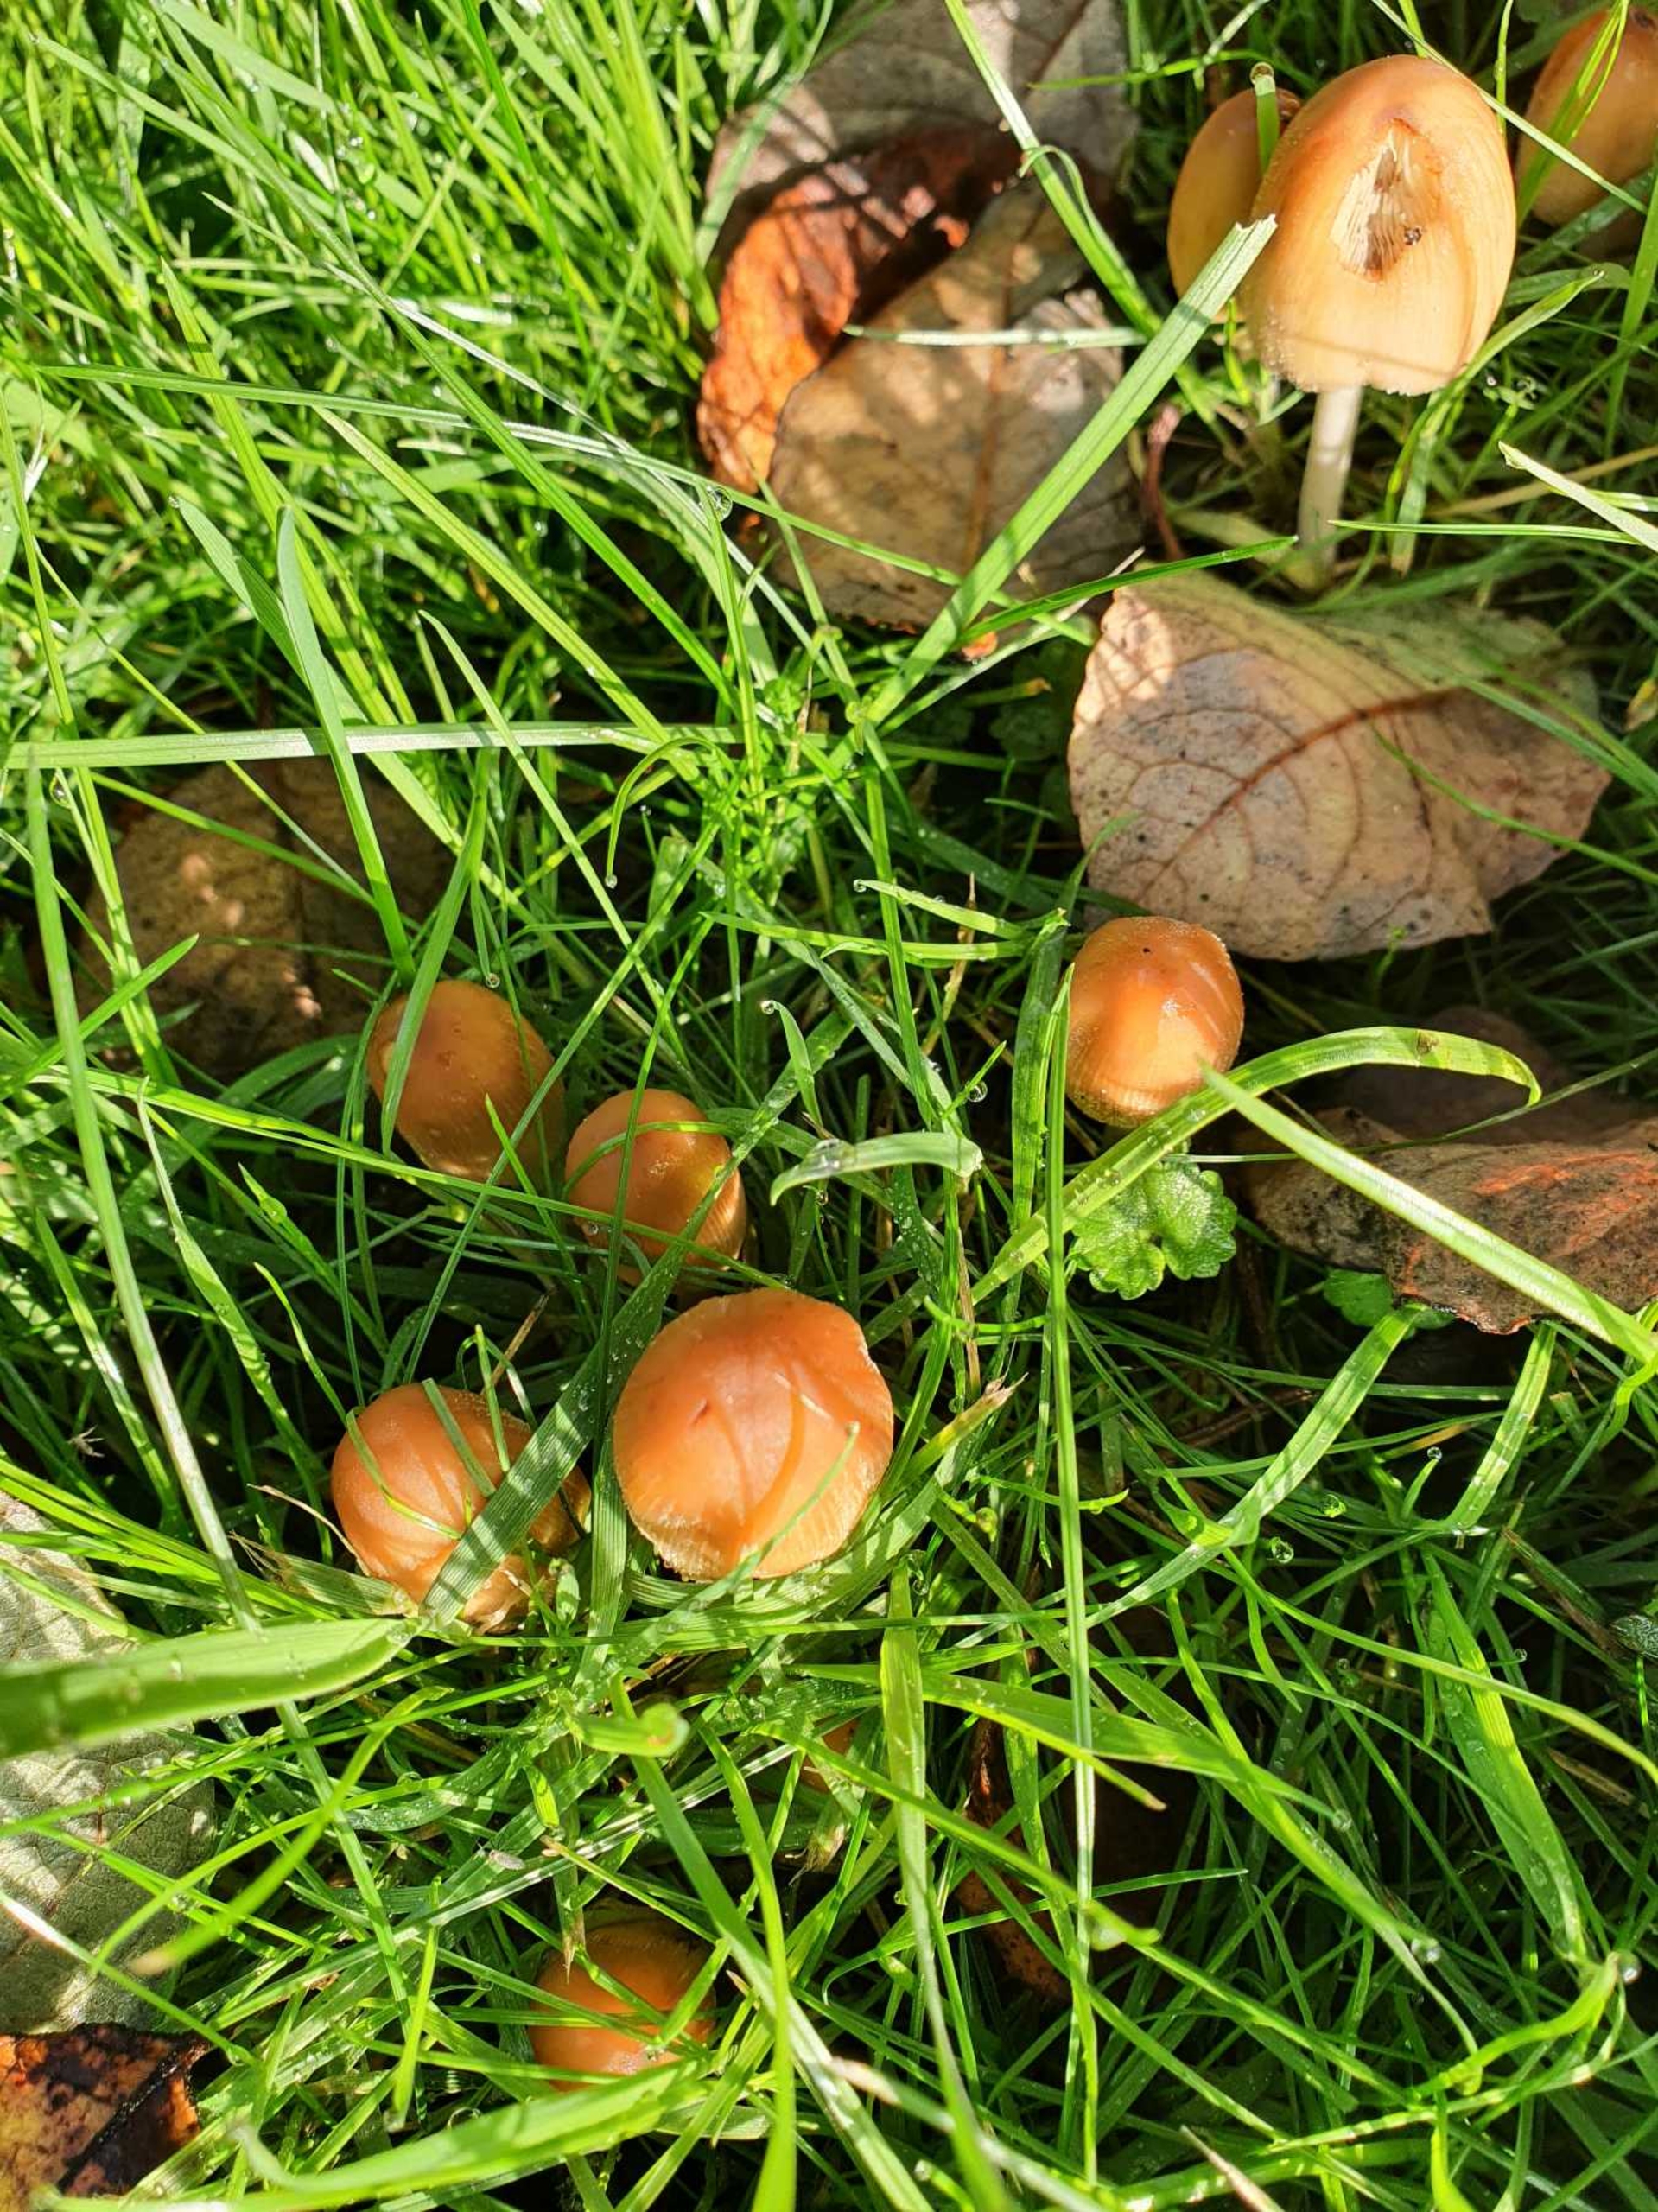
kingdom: Fungi
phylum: Basidiomycota
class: Agaricomycetes
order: Agaricales
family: Psathyrellaceae
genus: Coprinellus
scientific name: Coprinellus micaceus
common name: Glimmer-blækhat
